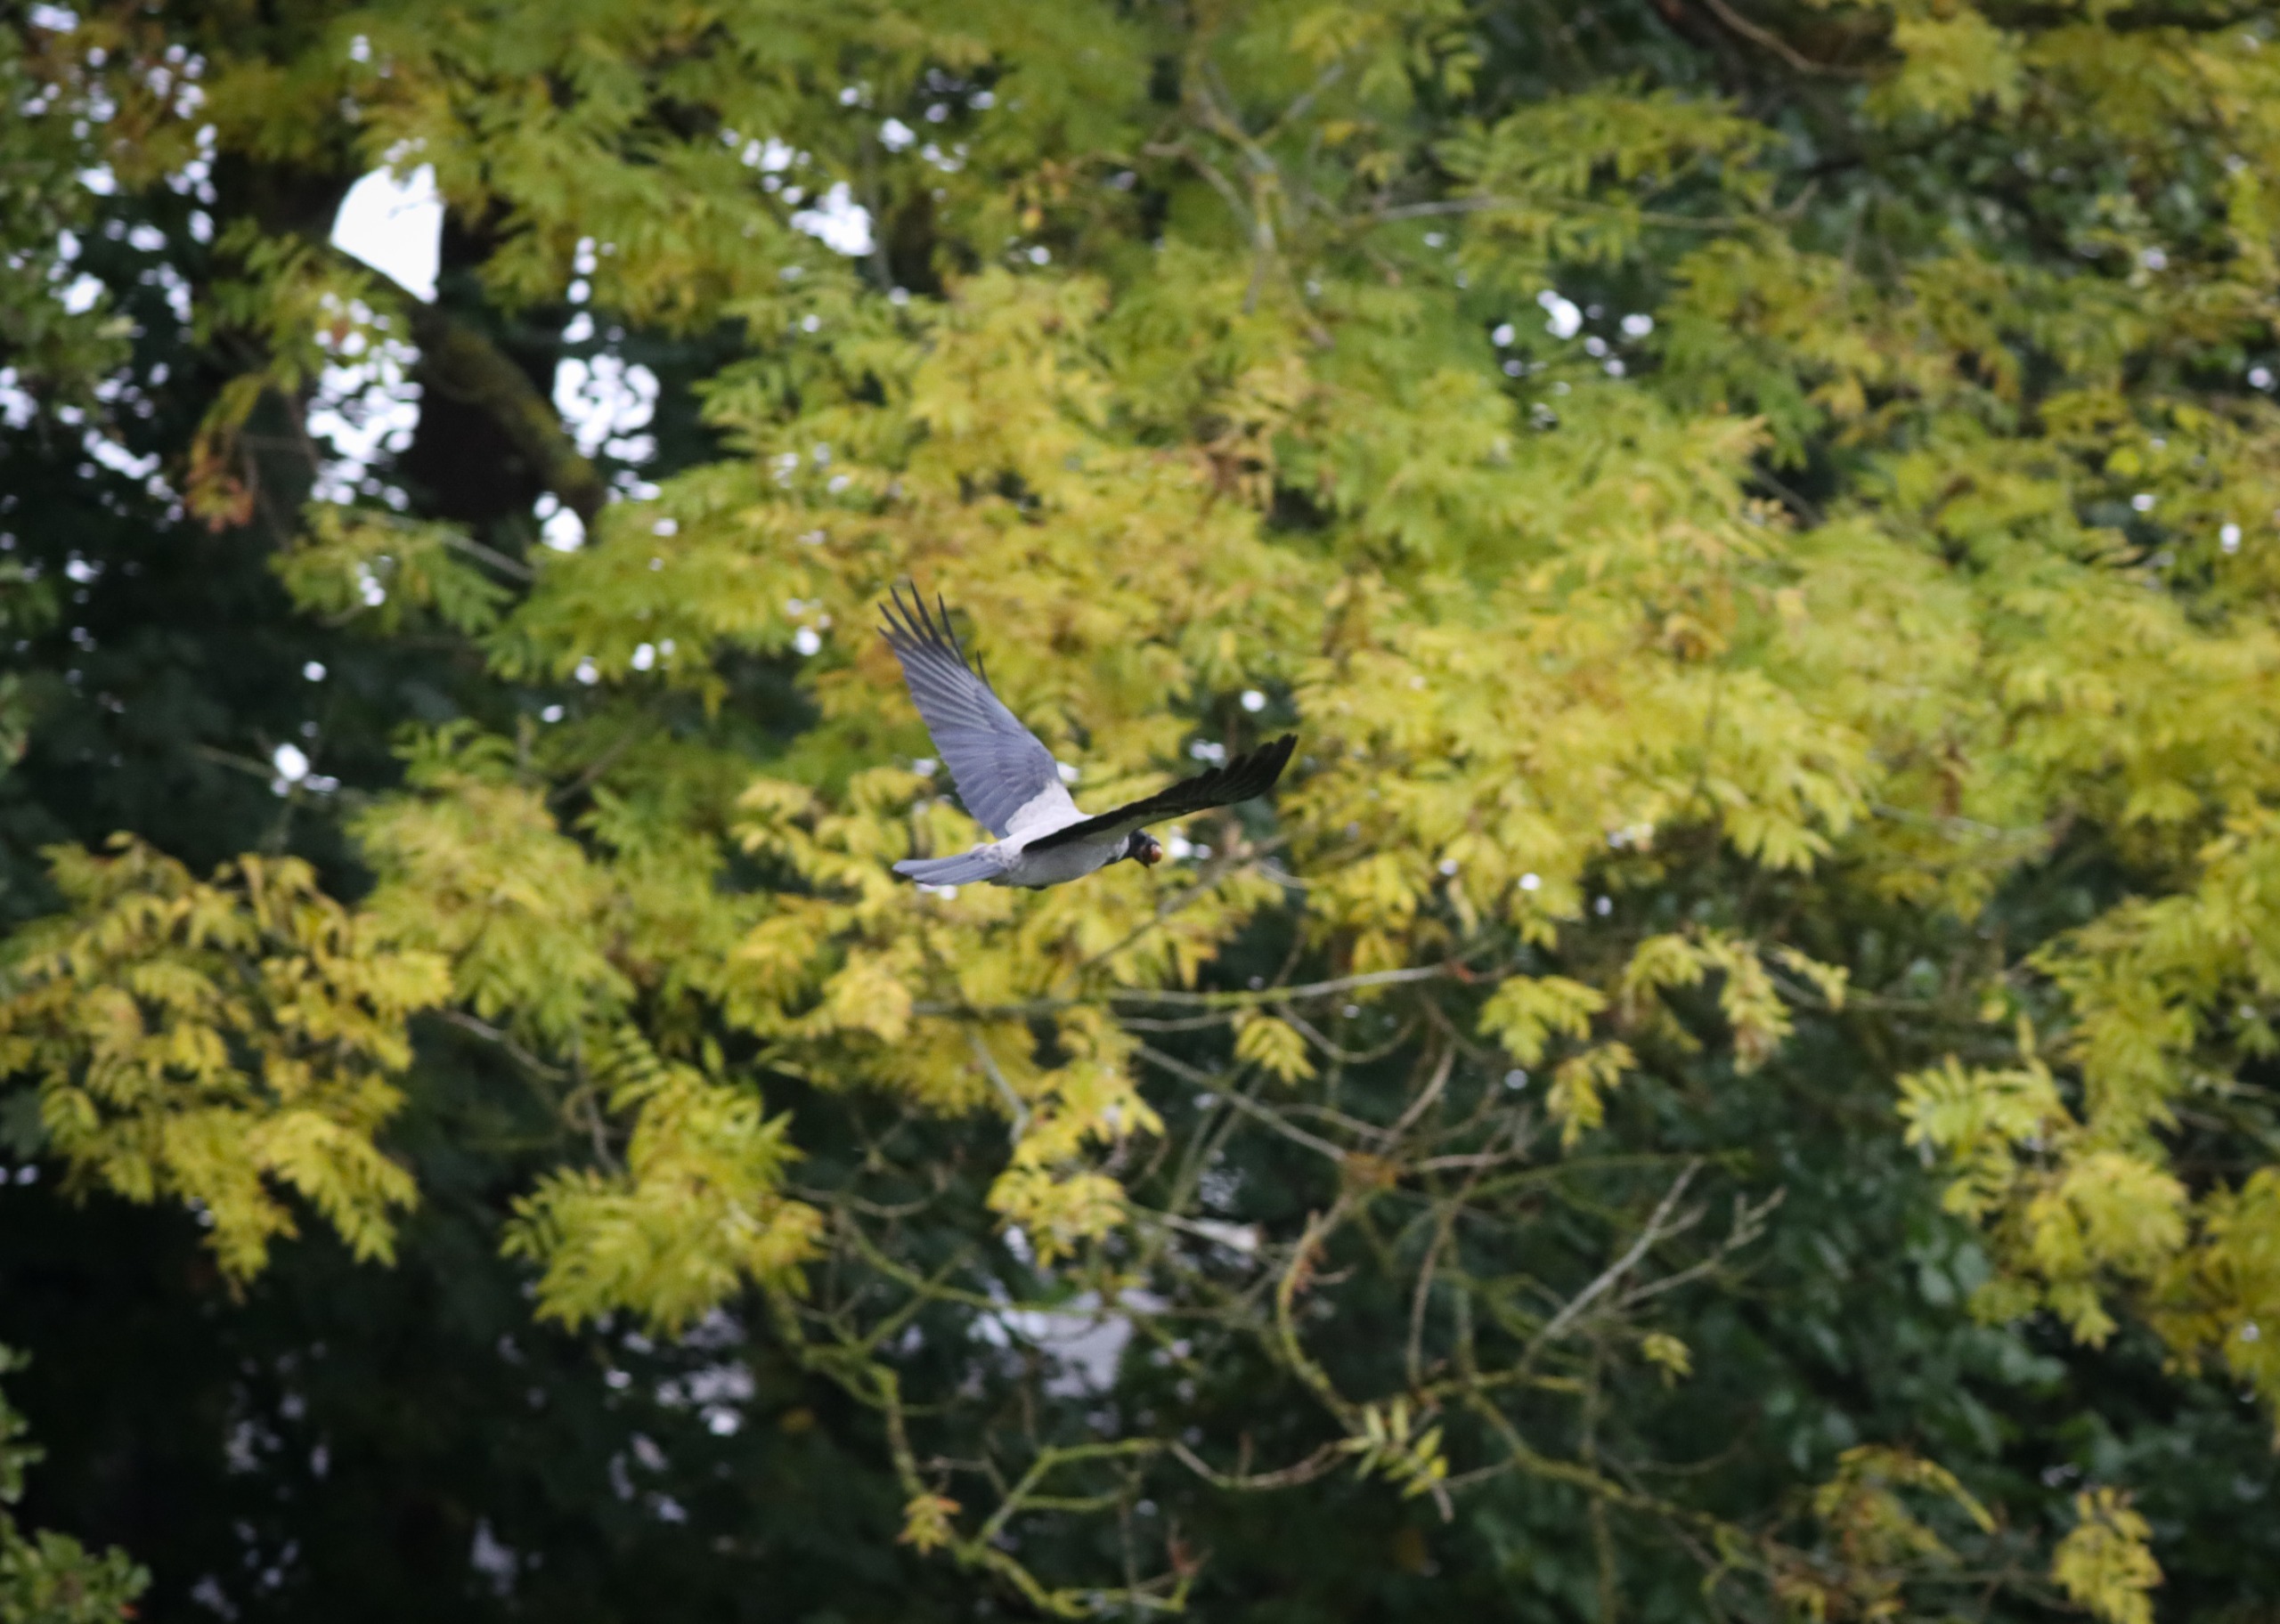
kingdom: Animalia
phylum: Chordata
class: Aves
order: Passeriformes
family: Corvidae
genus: Corvus
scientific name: Corvus cornix
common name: Gråkrage
